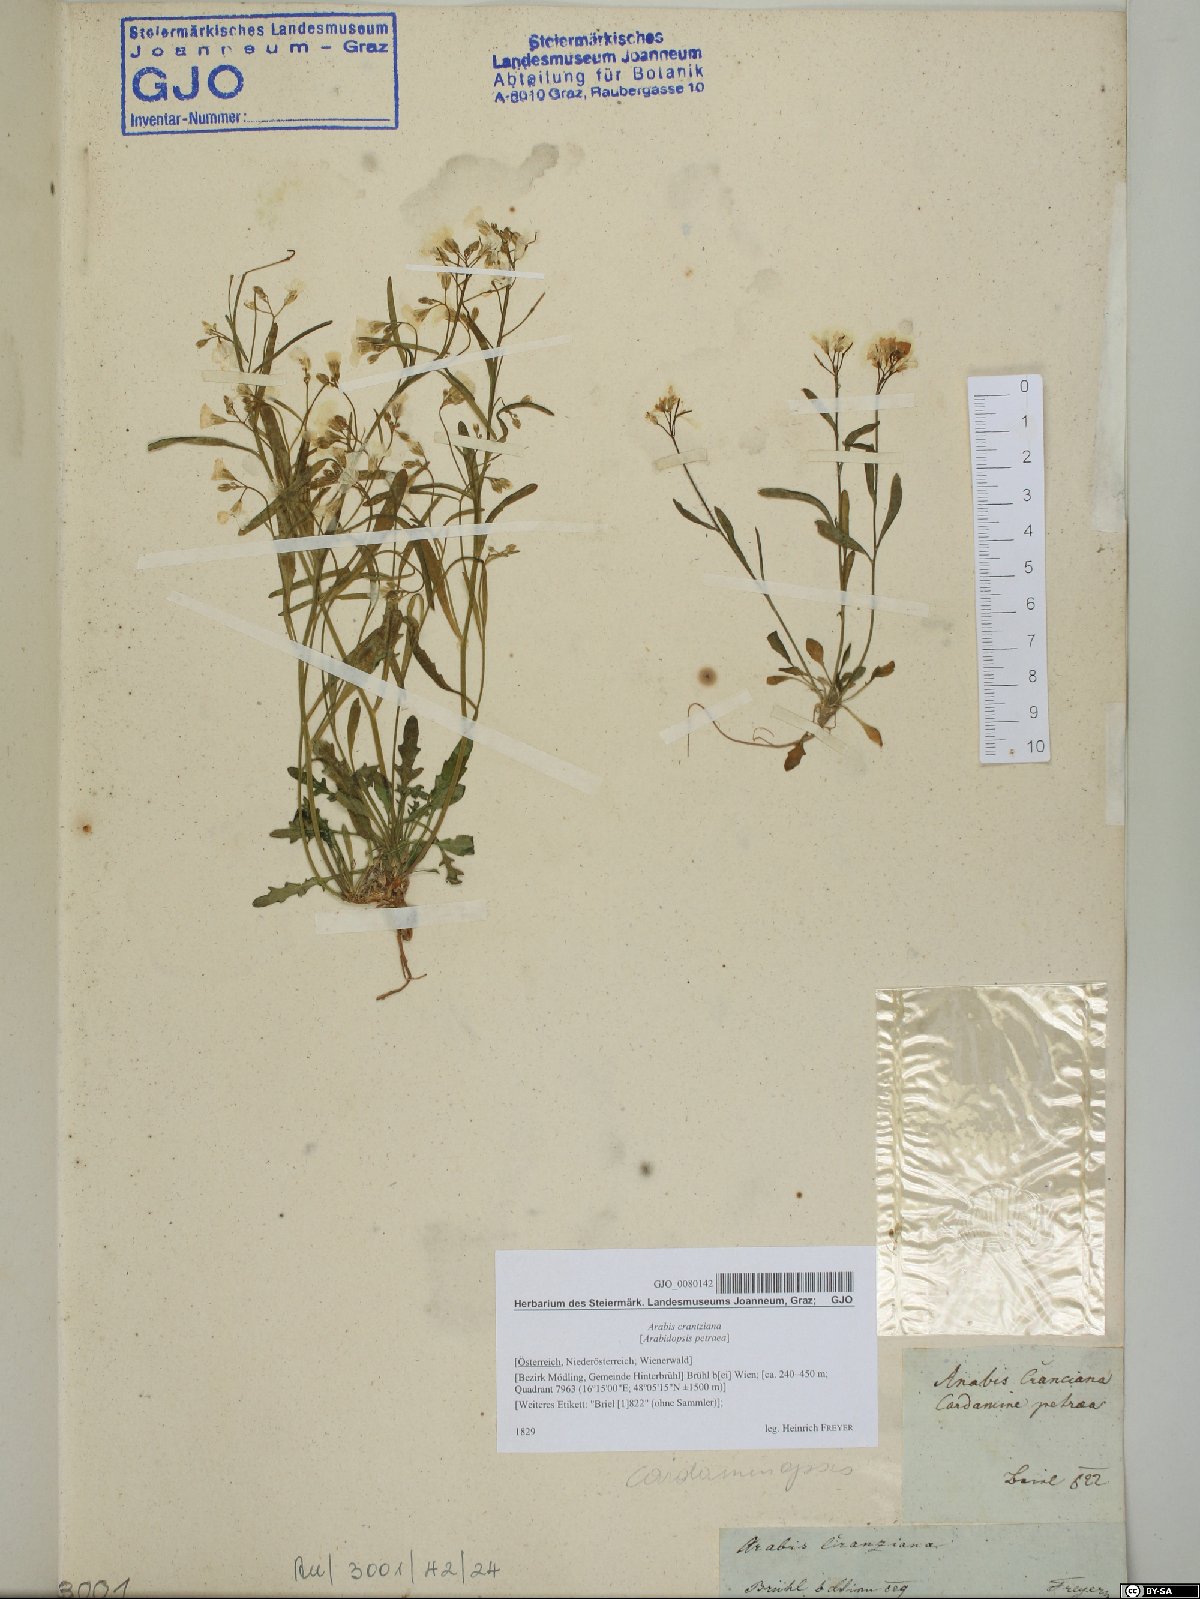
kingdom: Plantae
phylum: Tracheophyta
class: Magnoliopsida
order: Brassicales
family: Brassicaceae
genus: Arabidopsis
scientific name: Arabidopsis lyrata
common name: Lyrate rockcress
